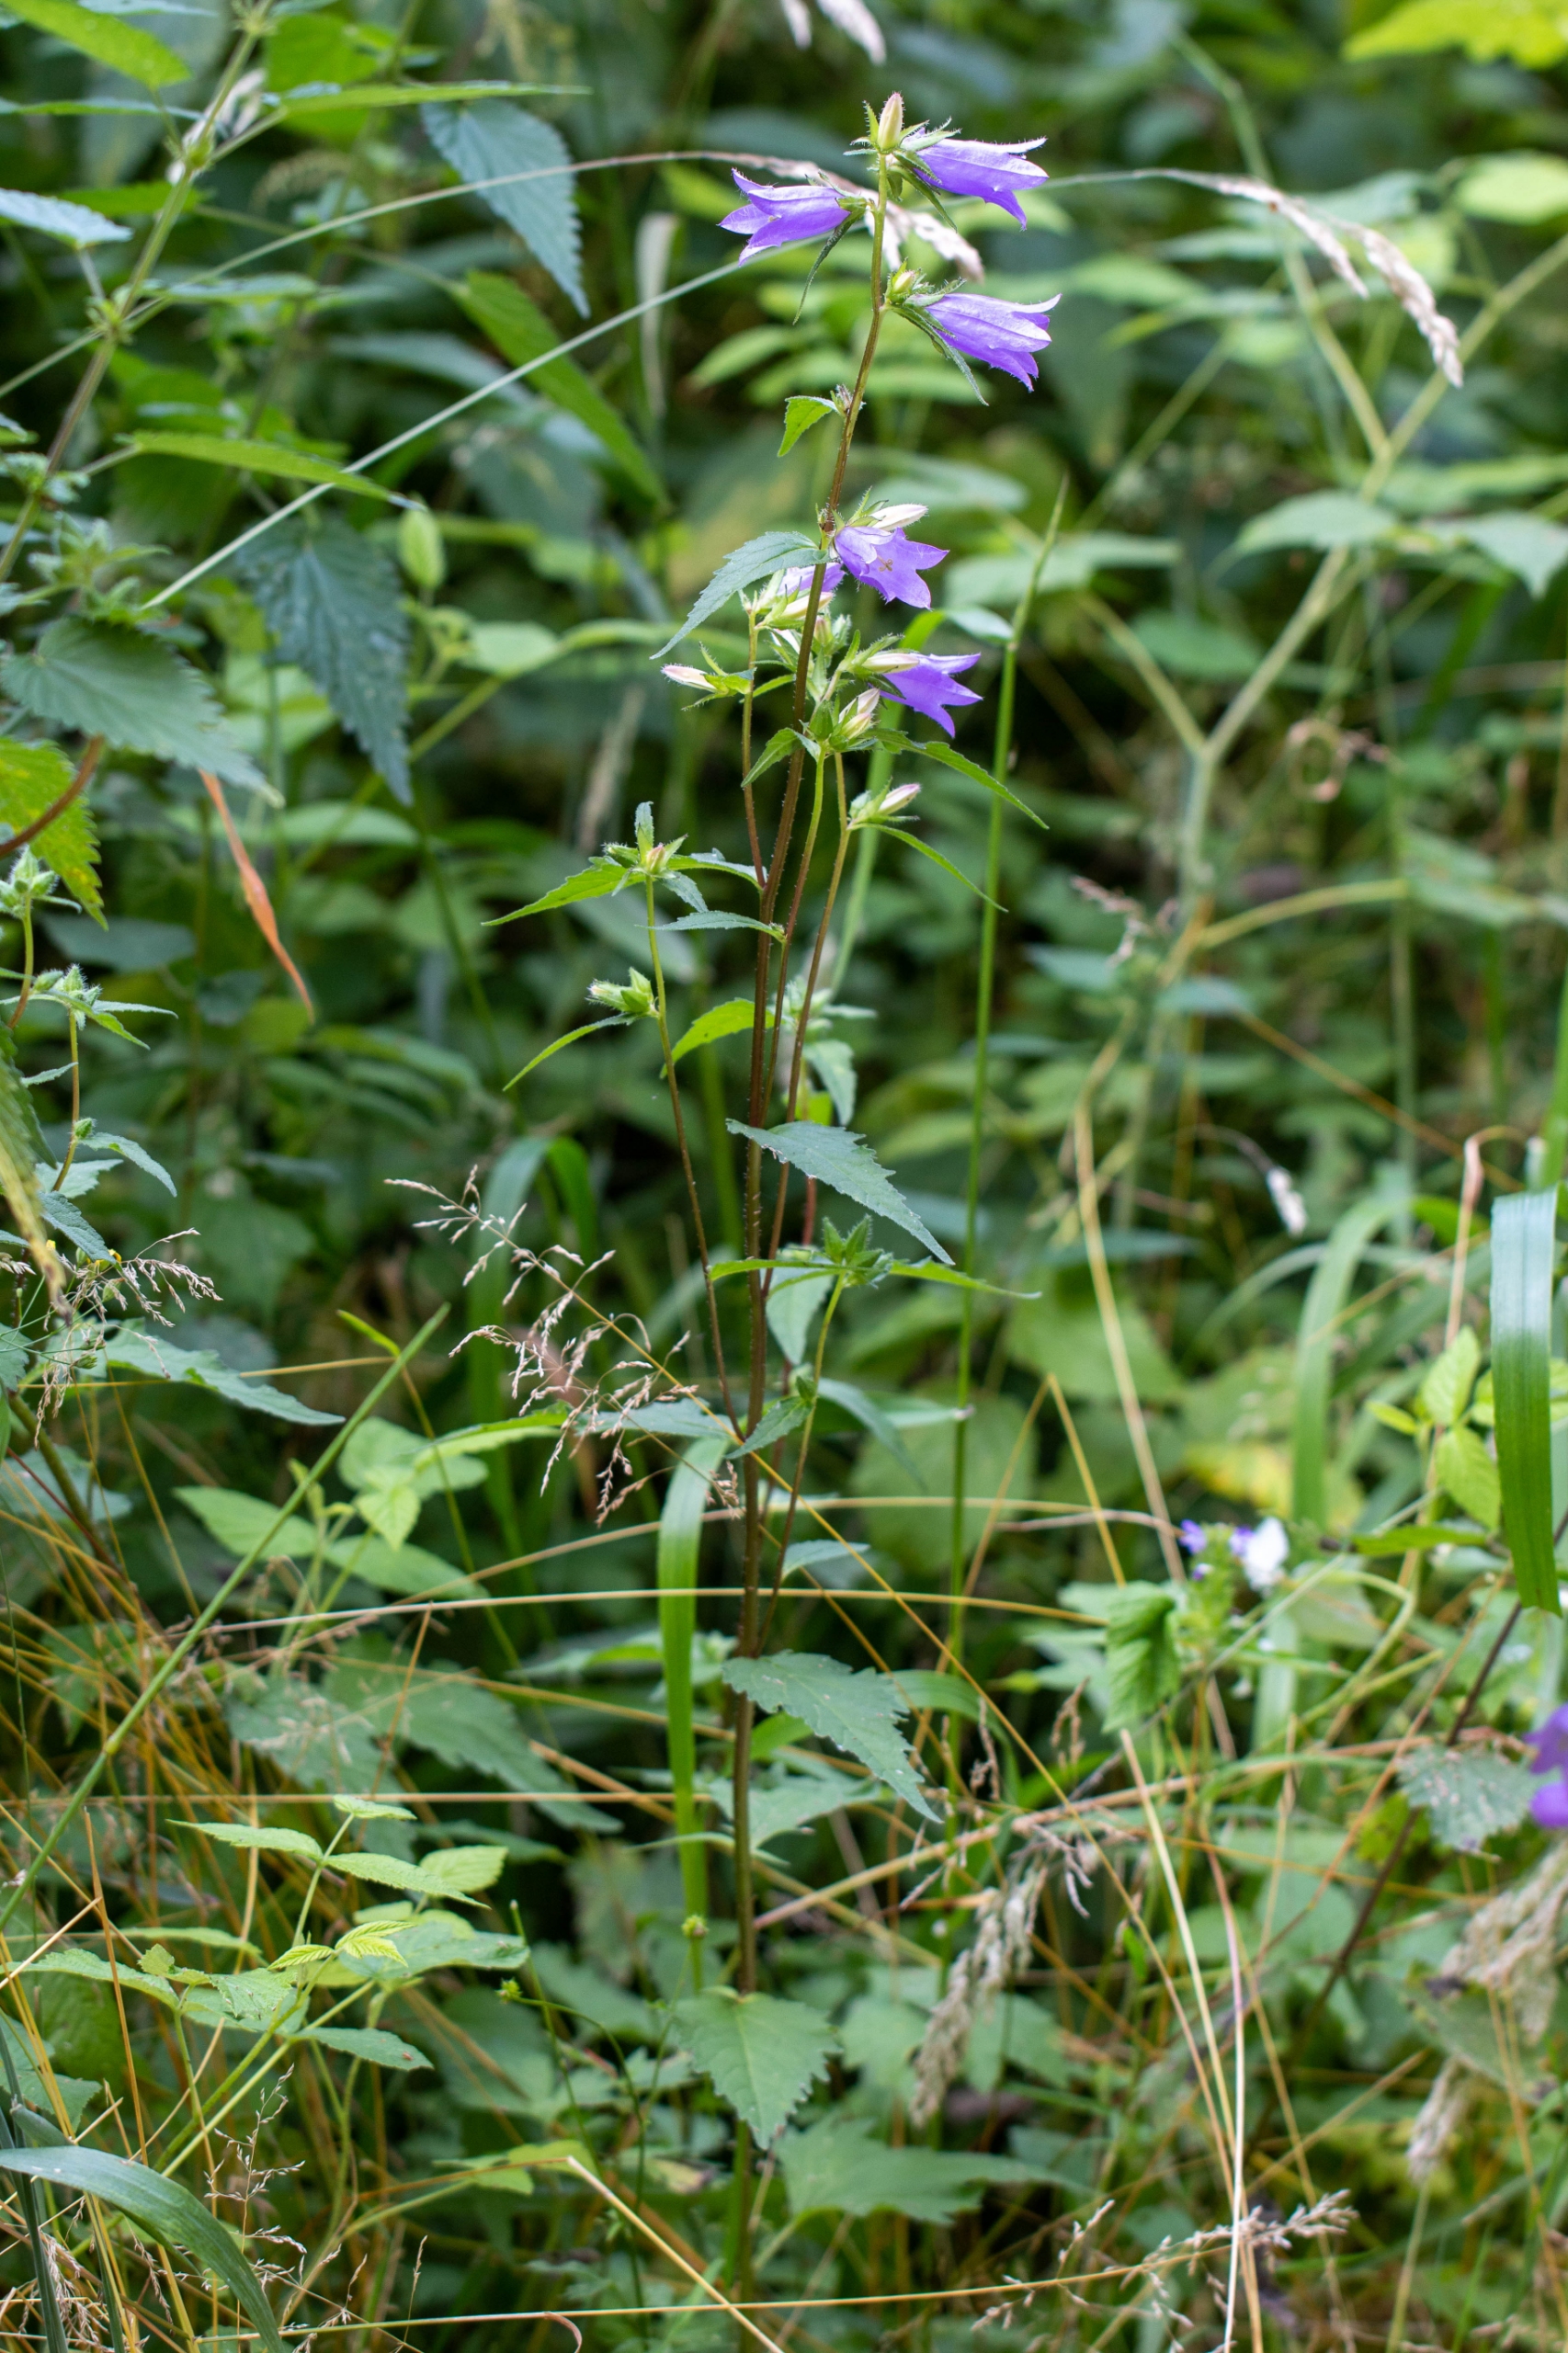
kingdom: Plantae
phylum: Tracheophyta
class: Magnoliopsida
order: Asterales
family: Campanulaceae
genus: Campanula
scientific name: Campanula trachelium
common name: Nælde-klokke
